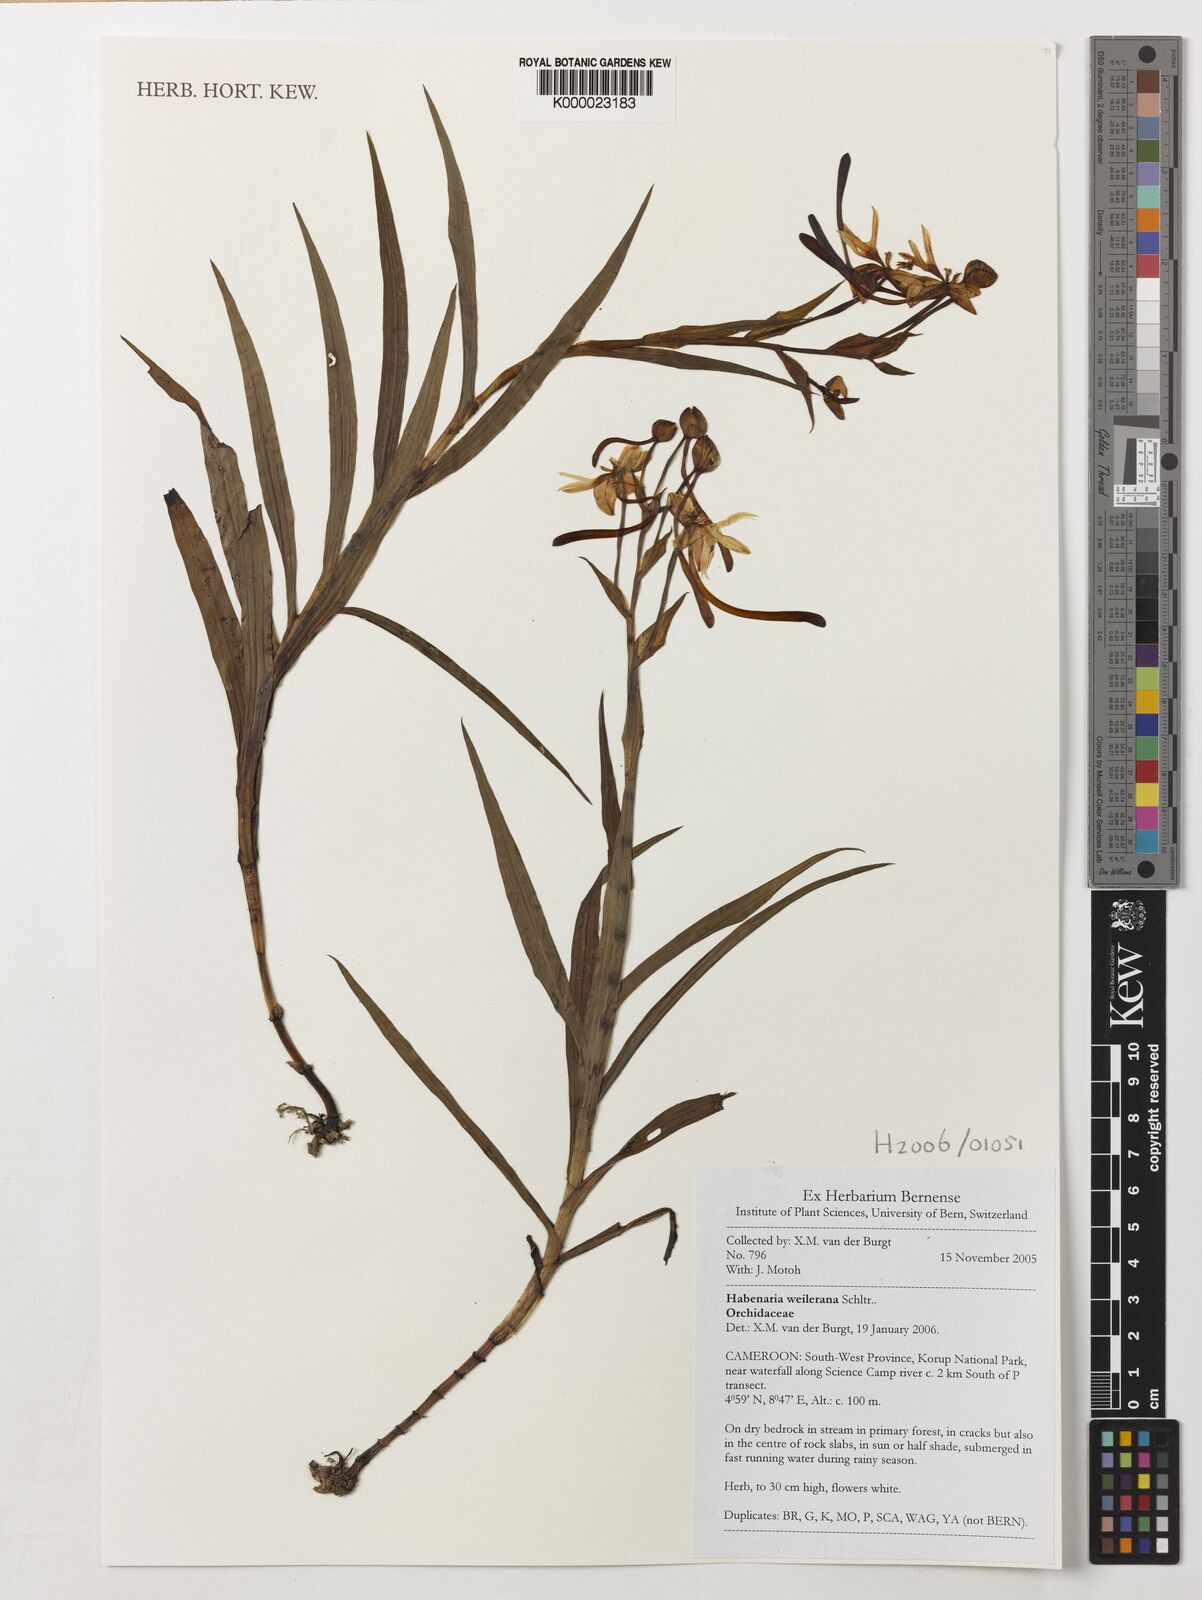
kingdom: Plantae
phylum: Tracheophyta
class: Liliopsida
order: Asparagales
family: Orchidaceae
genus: Habenaria
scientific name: Habenaria weileriana
